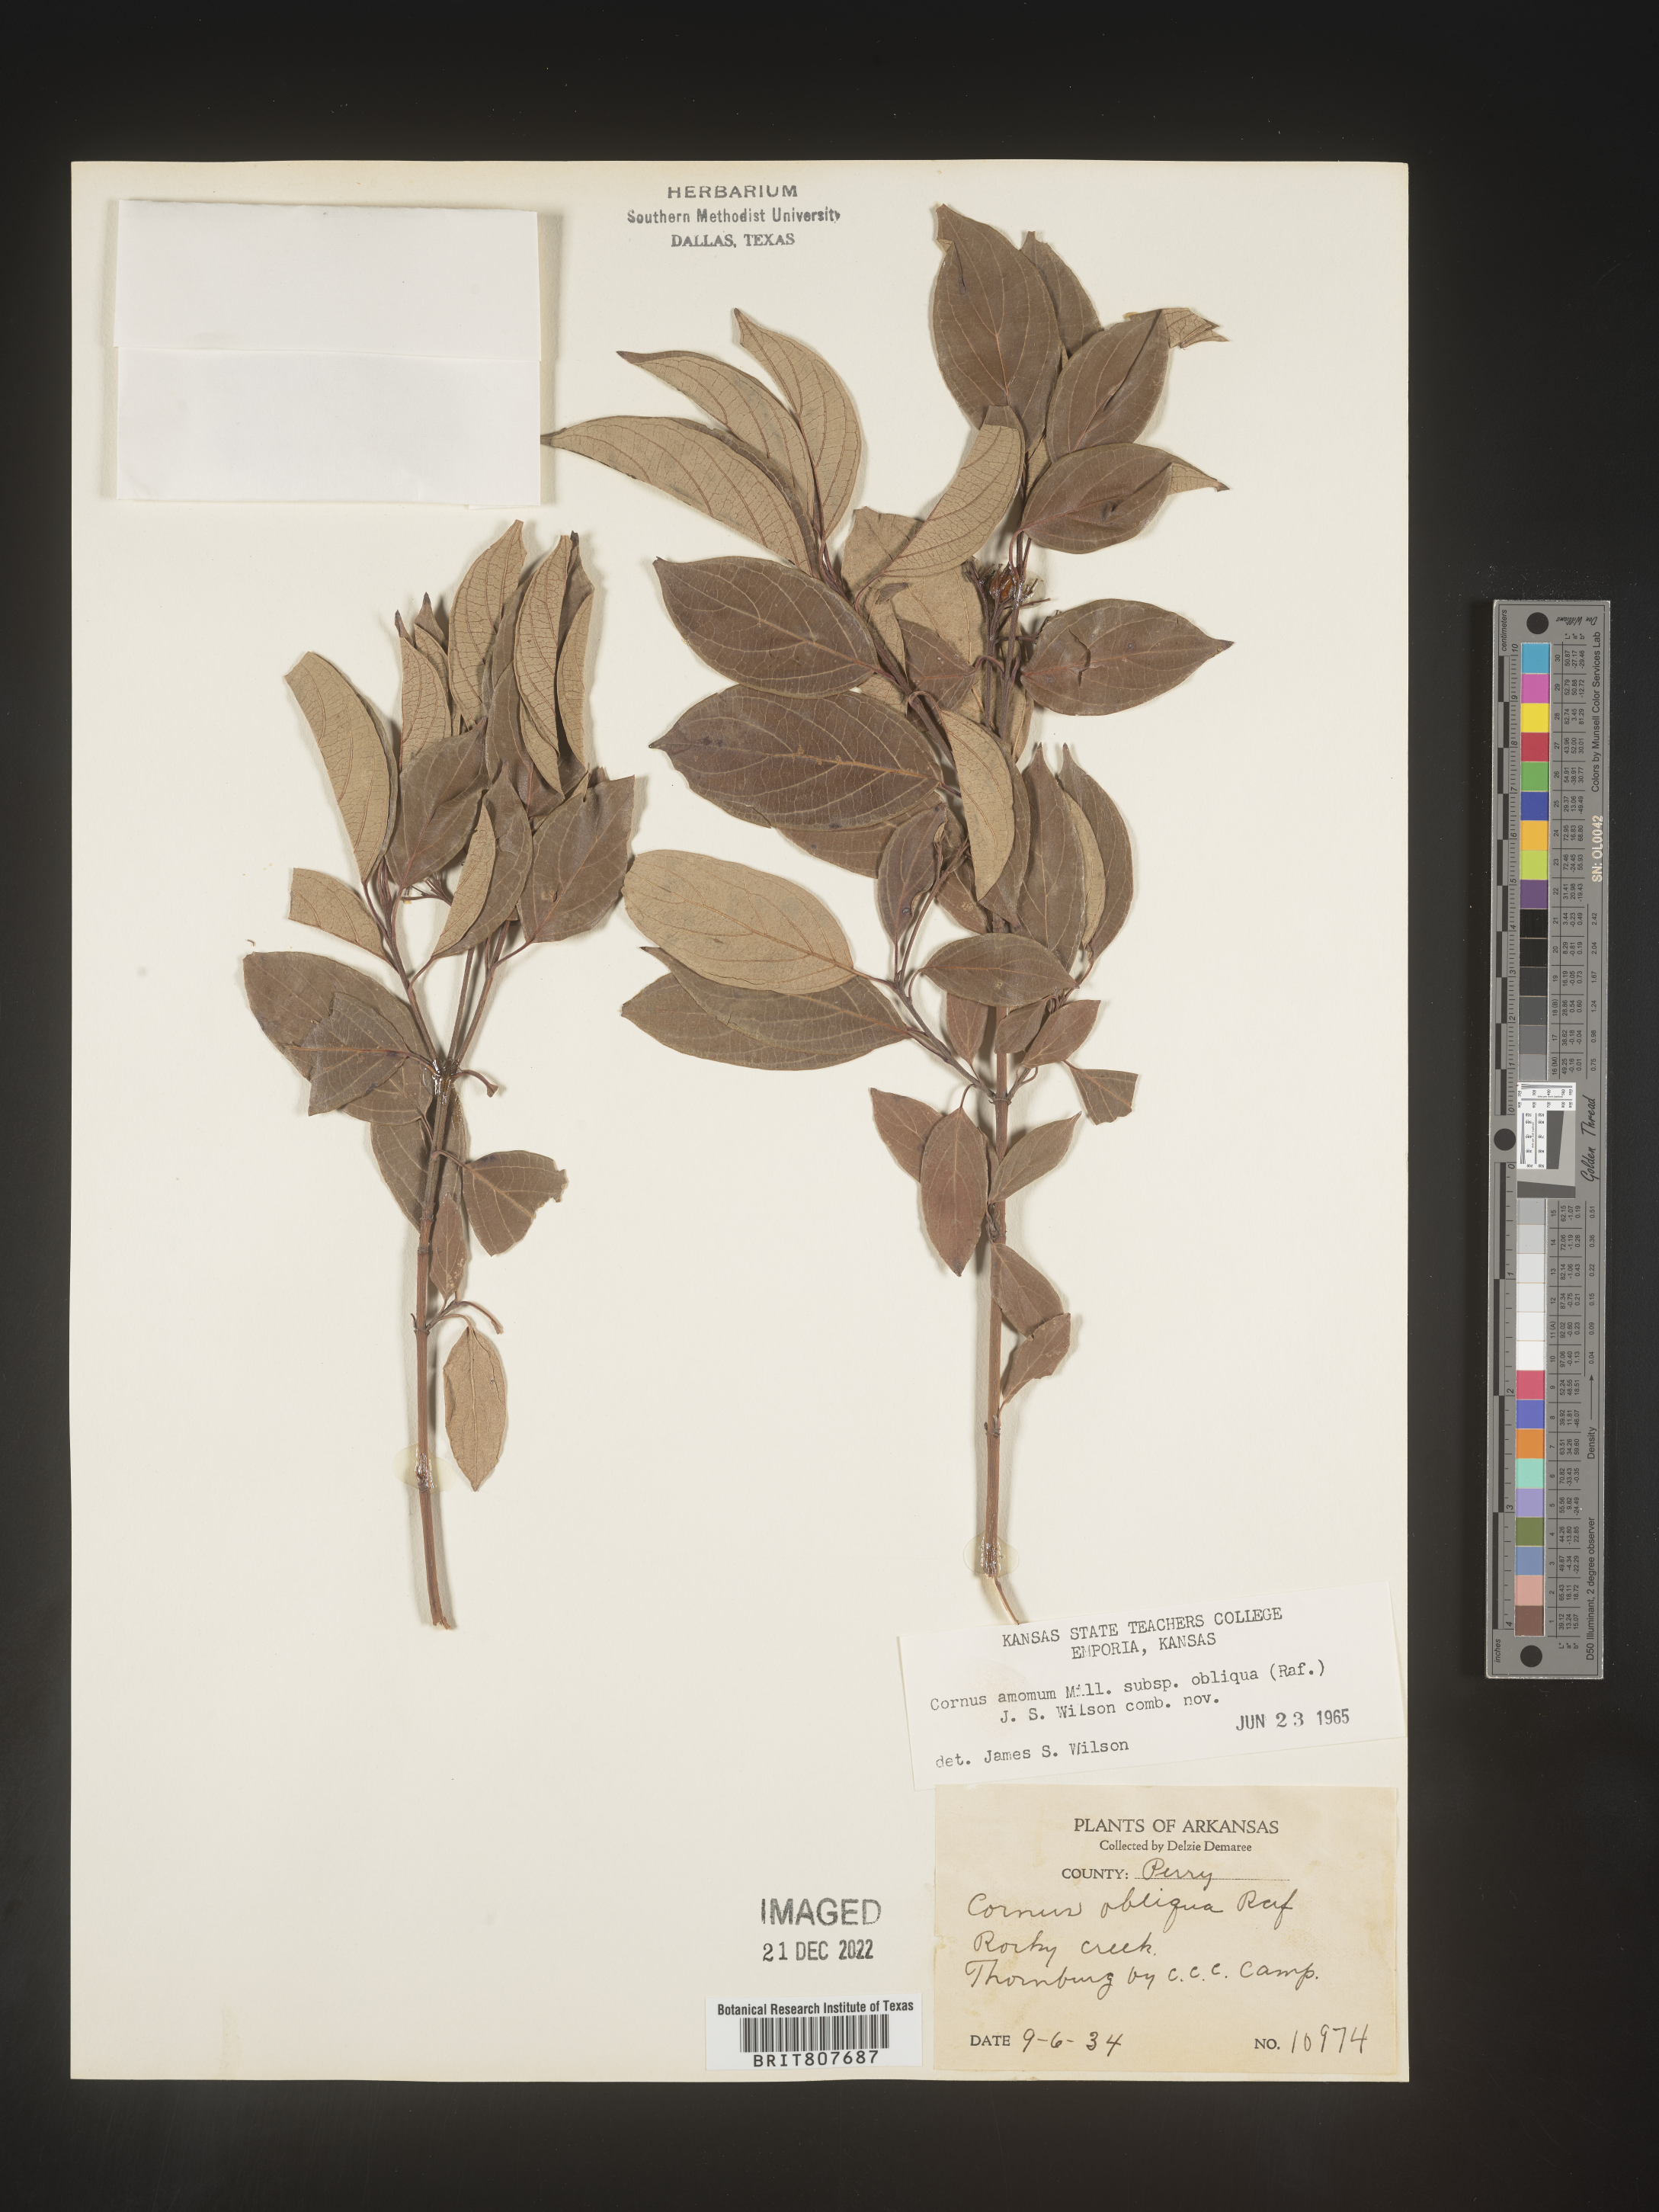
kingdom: Plantae
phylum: Tracheophyta
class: Magnoliopsida
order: Cornales
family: Cornaceae
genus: Cornus
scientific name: Cornus obliqua
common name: Pale dogwood
